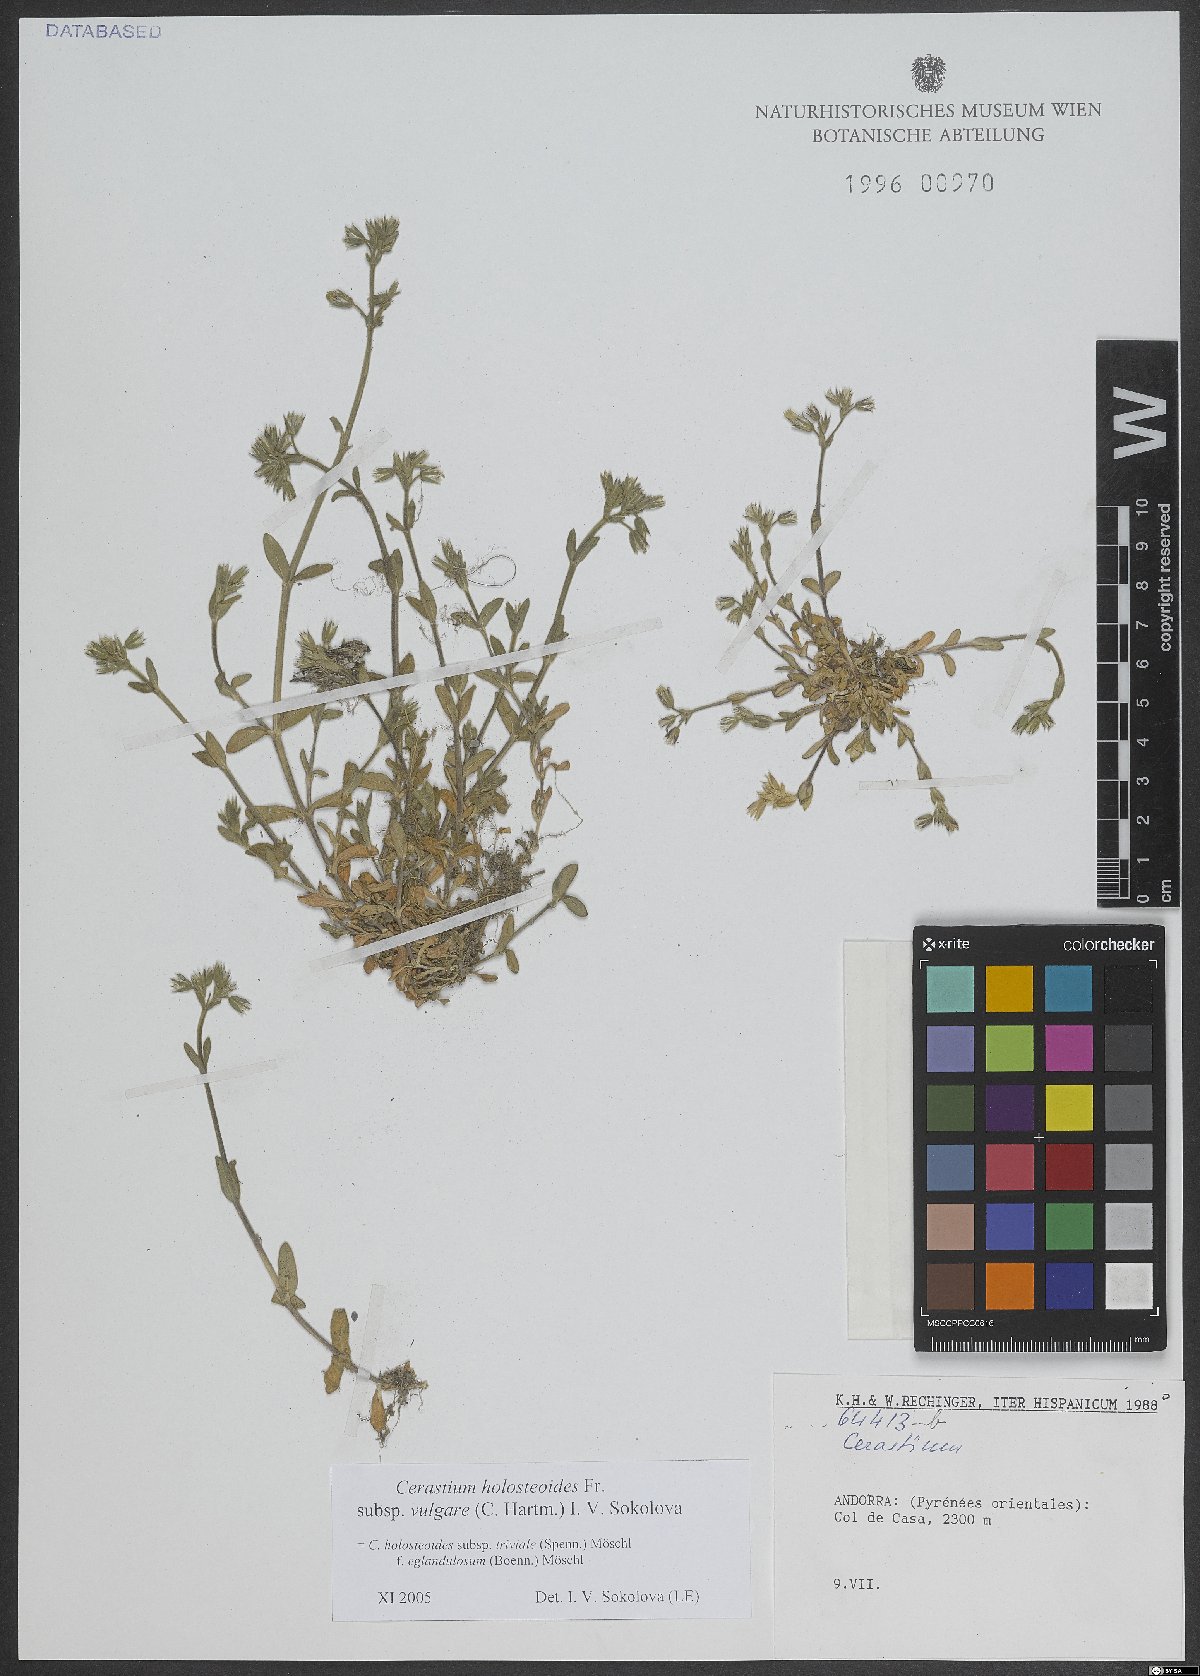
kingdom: Plantae
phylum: Tracheophyta
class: Magnoliopsida
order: Caryophyllales
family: Caryophyllaceae
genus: Cerastium
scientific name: Cerastium holosteoides
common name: Big chickweed
